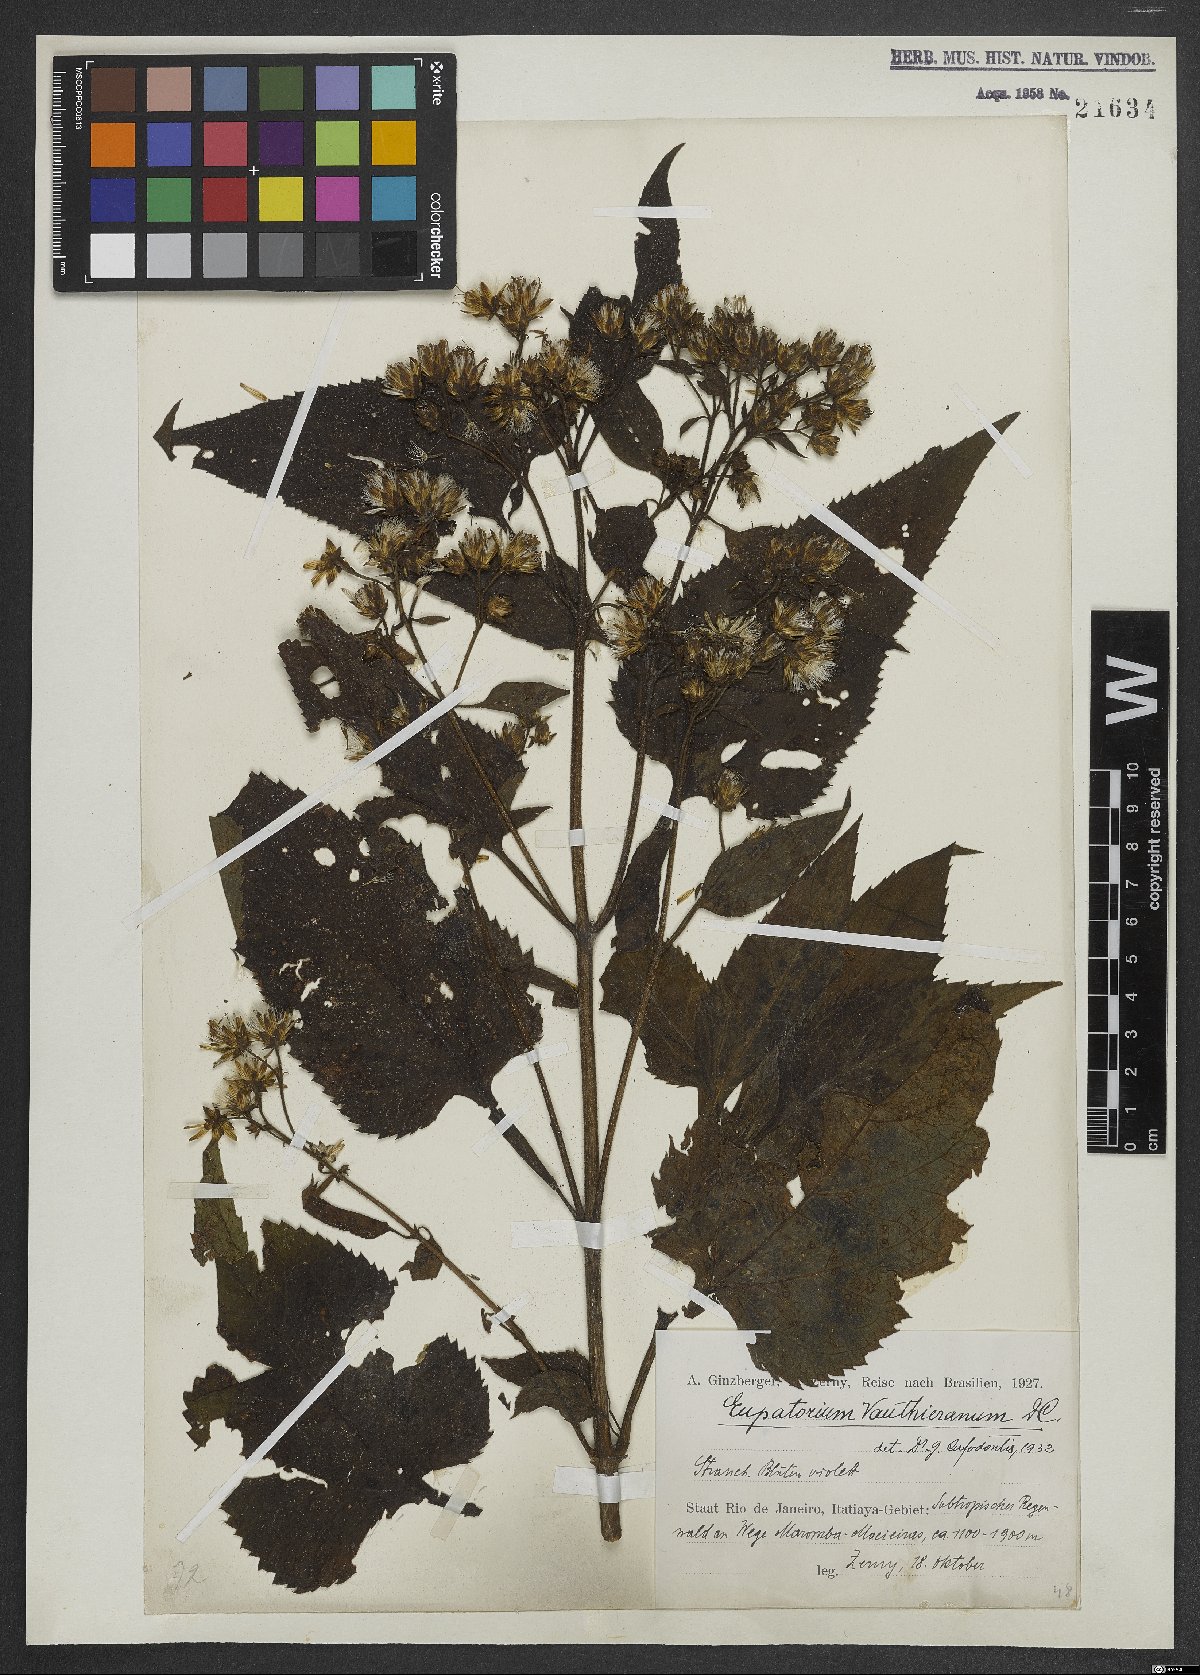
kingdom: Plantae
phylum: Tracheophyta
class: Magnoliopsida
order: Asterales
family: Asteraceae
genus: Heterocondylus
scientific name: Heterocondylus alatus
